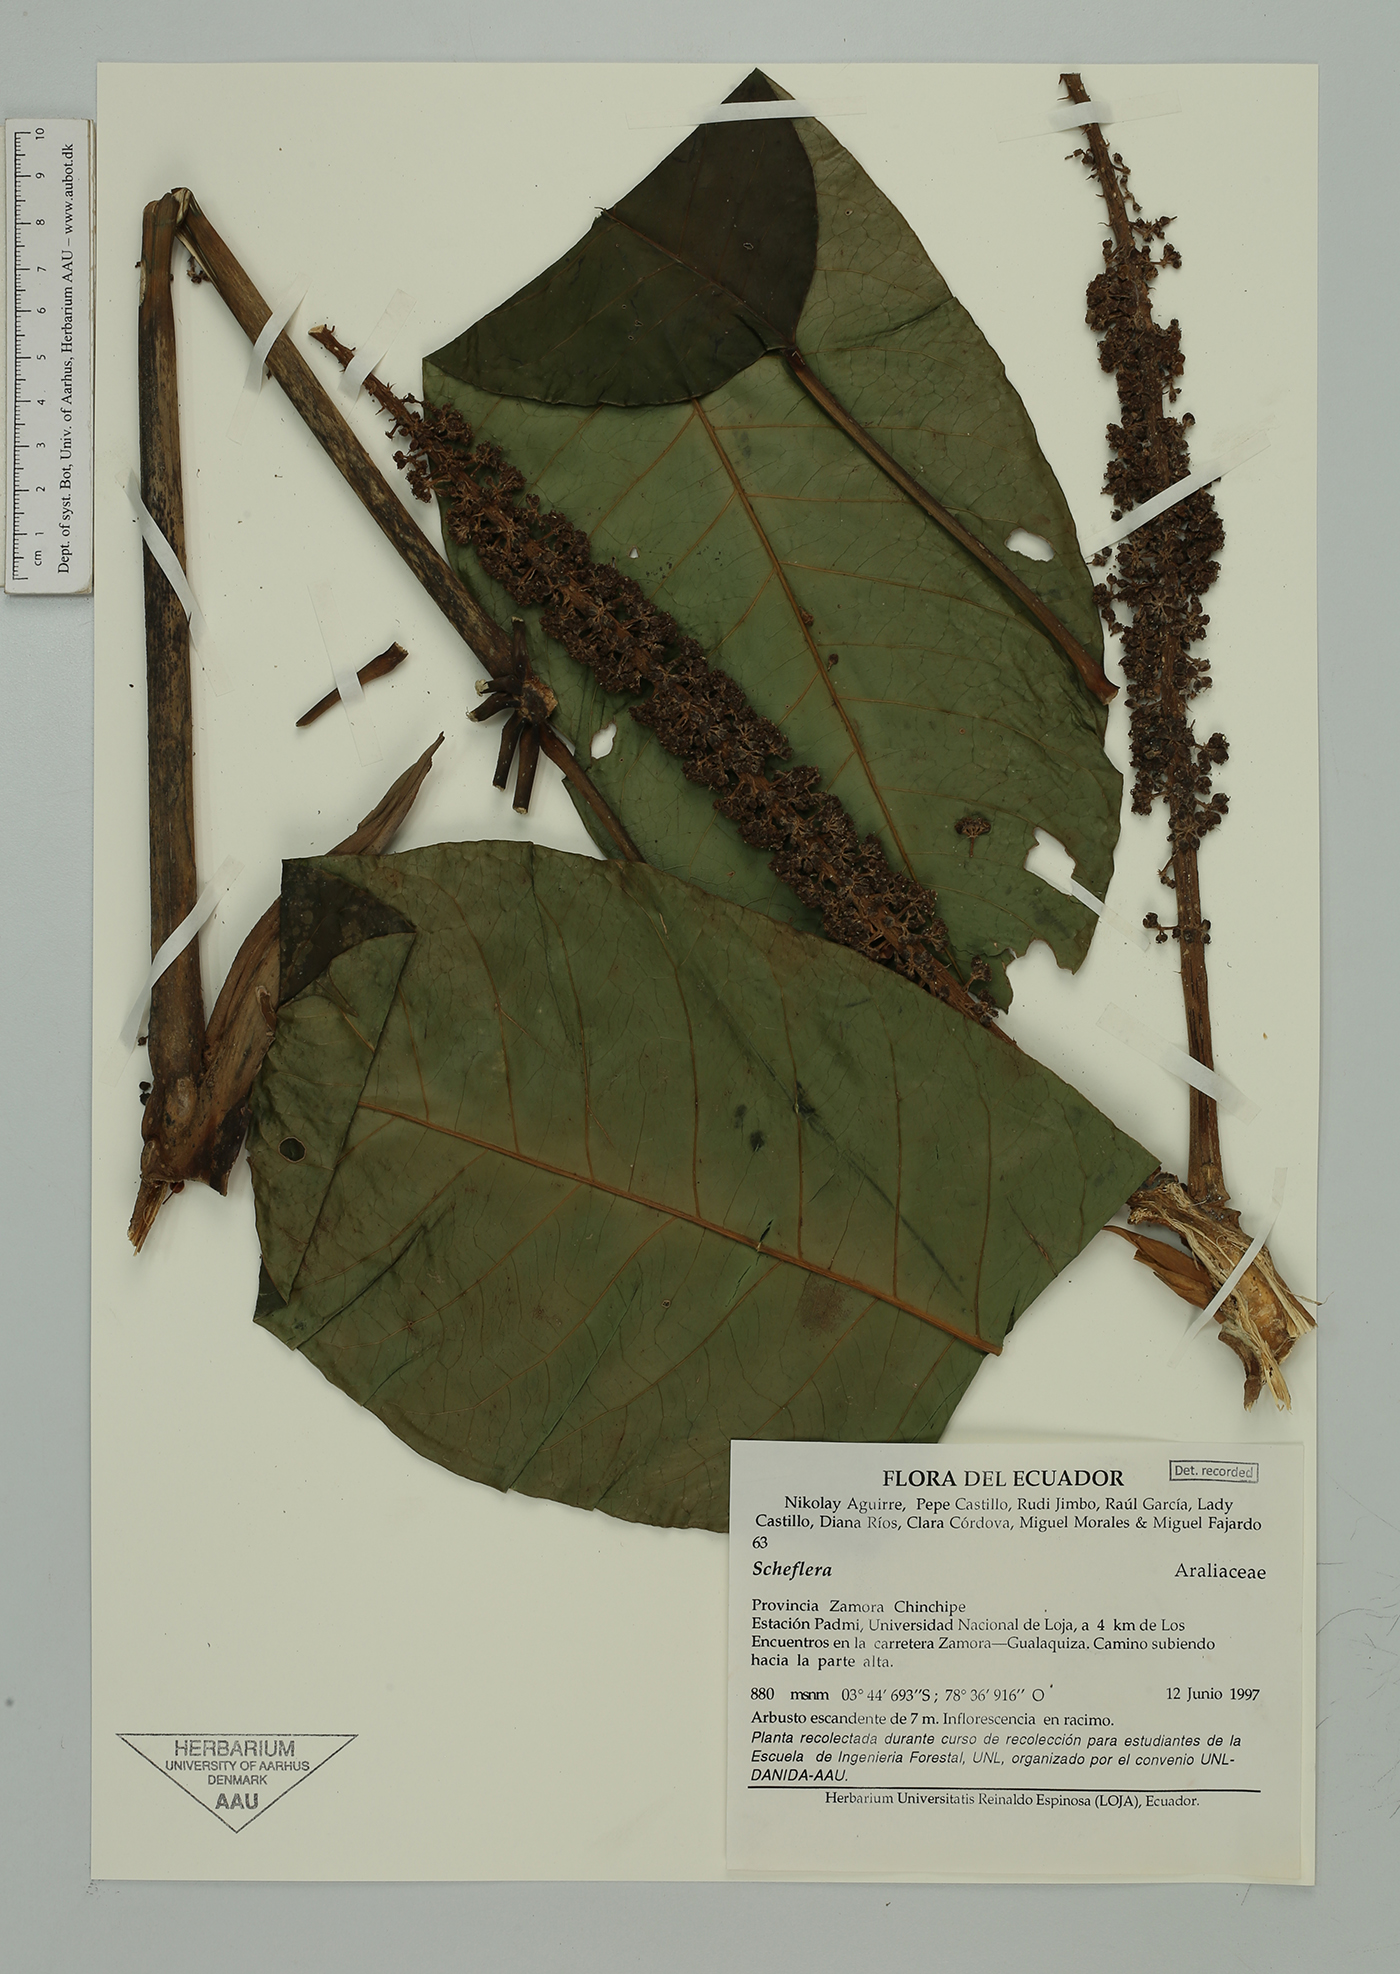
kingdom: Plantae
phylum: Tracheophyta
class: Magnoliopsida
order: Apiales
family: Araliaceae
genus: Sciodaphyllum
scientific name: Sciodaphyllum
